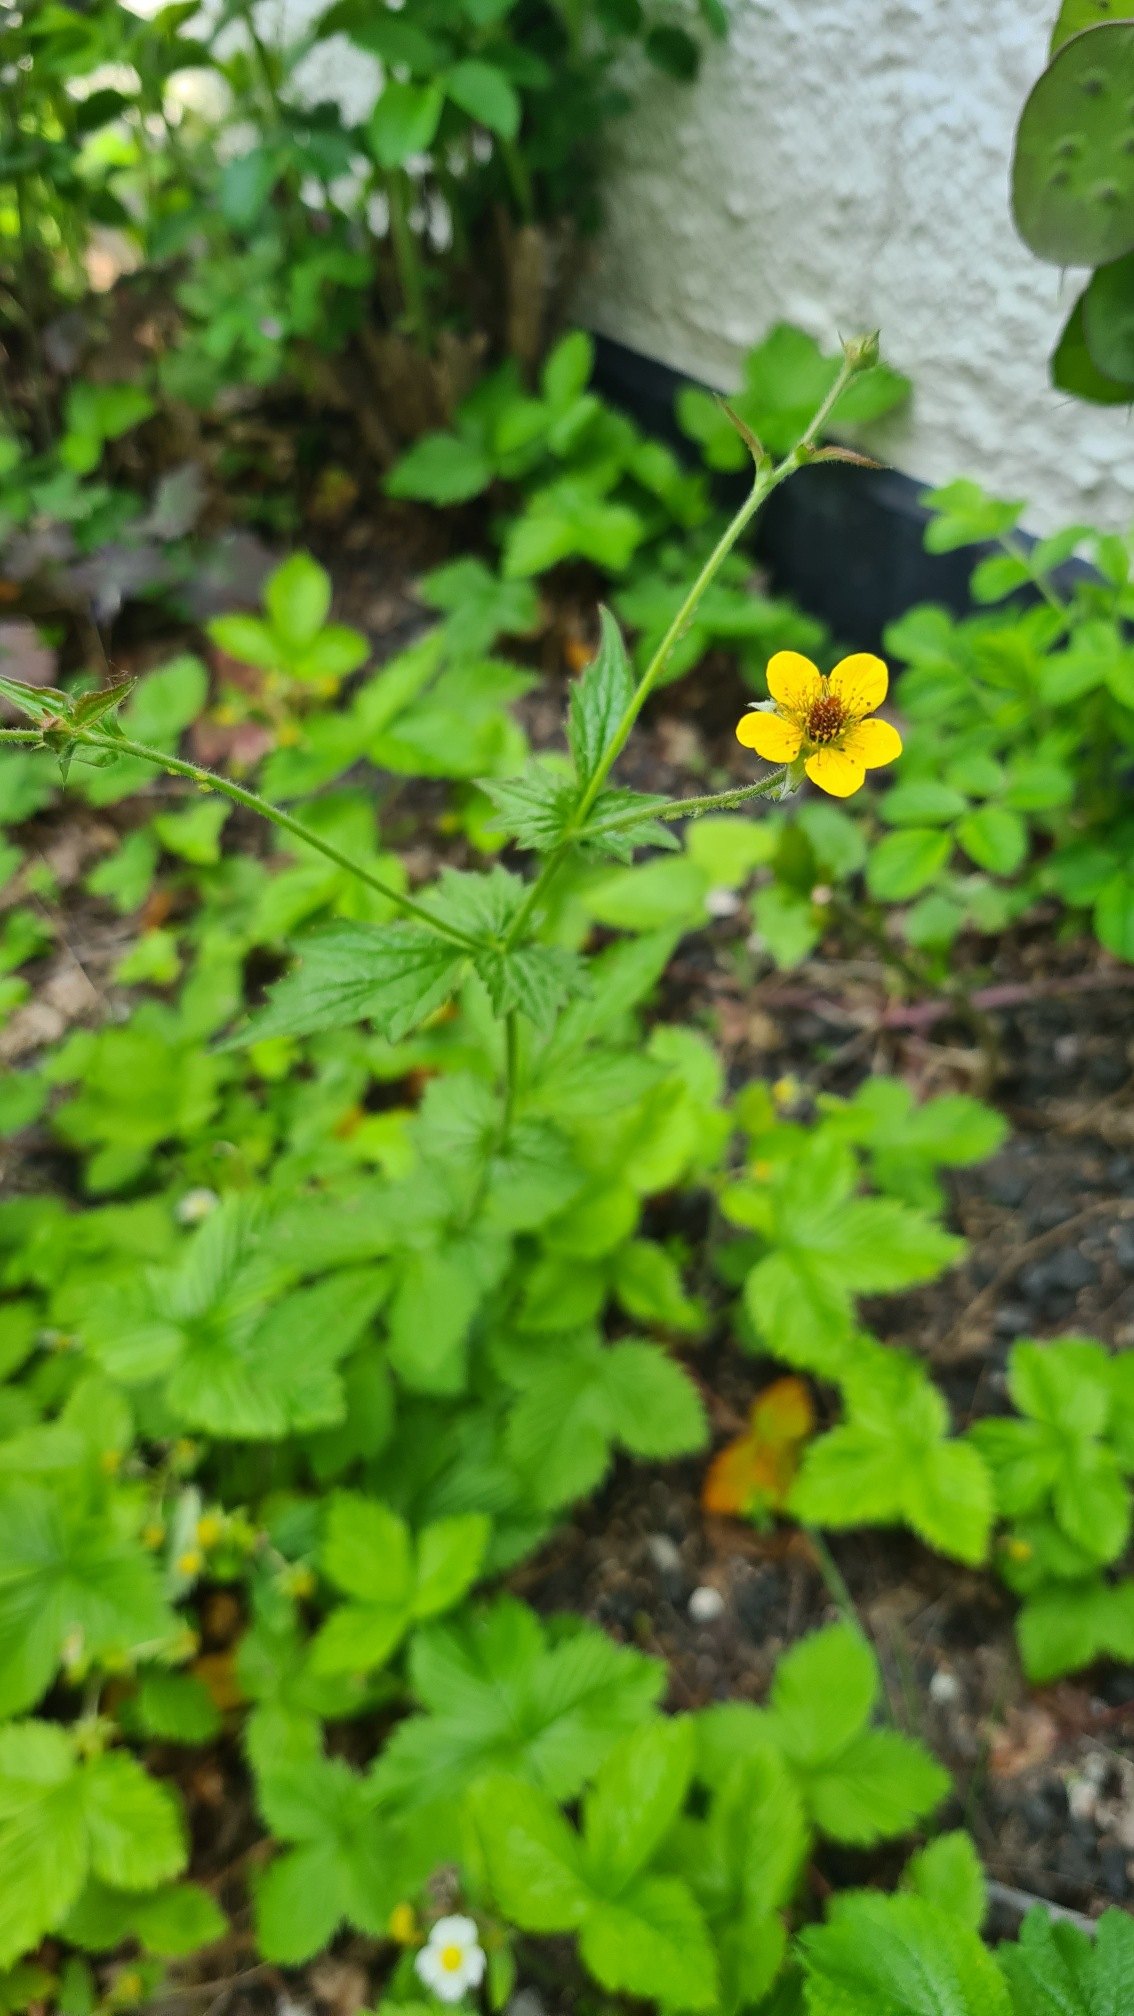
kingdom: Plantae
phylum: Tracheophyta
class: Magnoliopsida
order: Rosales
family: Rosaceae
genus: Geum
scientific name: Geum urbanum
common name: Feber-nellikerod
